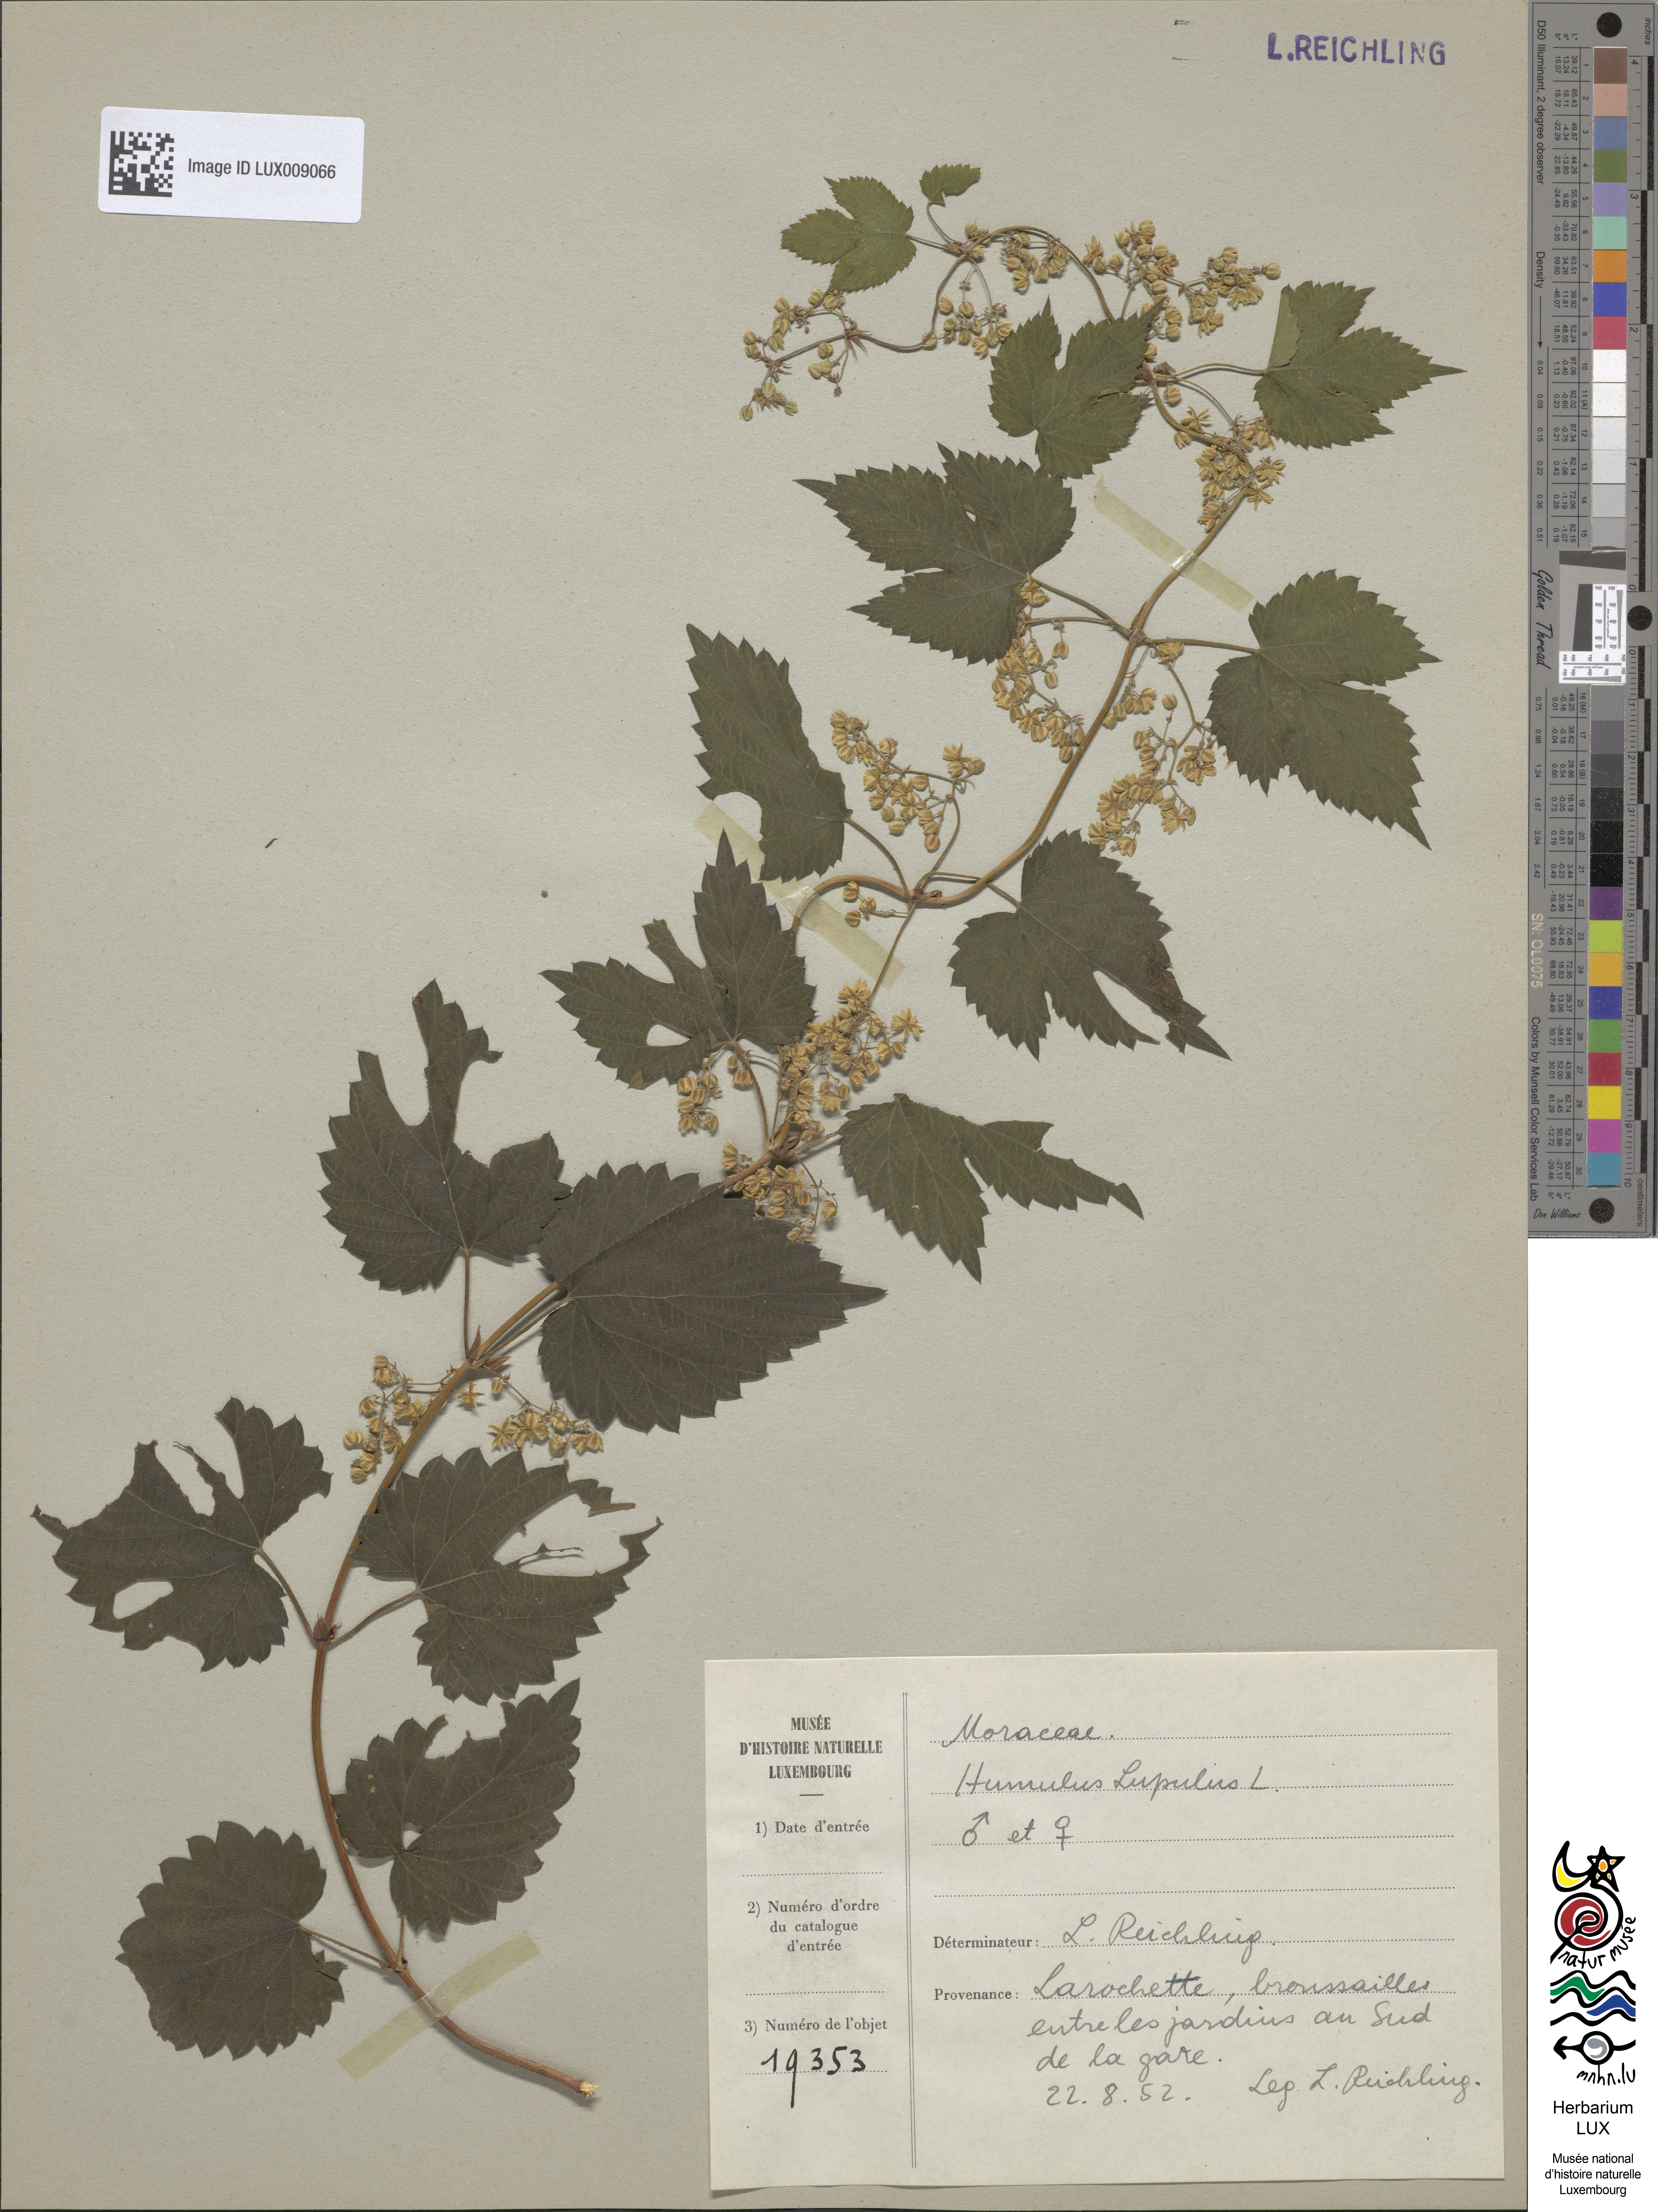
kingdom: Plantae
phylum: Tracheophyta
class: Magnoliopsida
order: Rosales
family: Cannabaceae
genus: Humulus
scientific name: Humulus lupulus
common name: Hop
